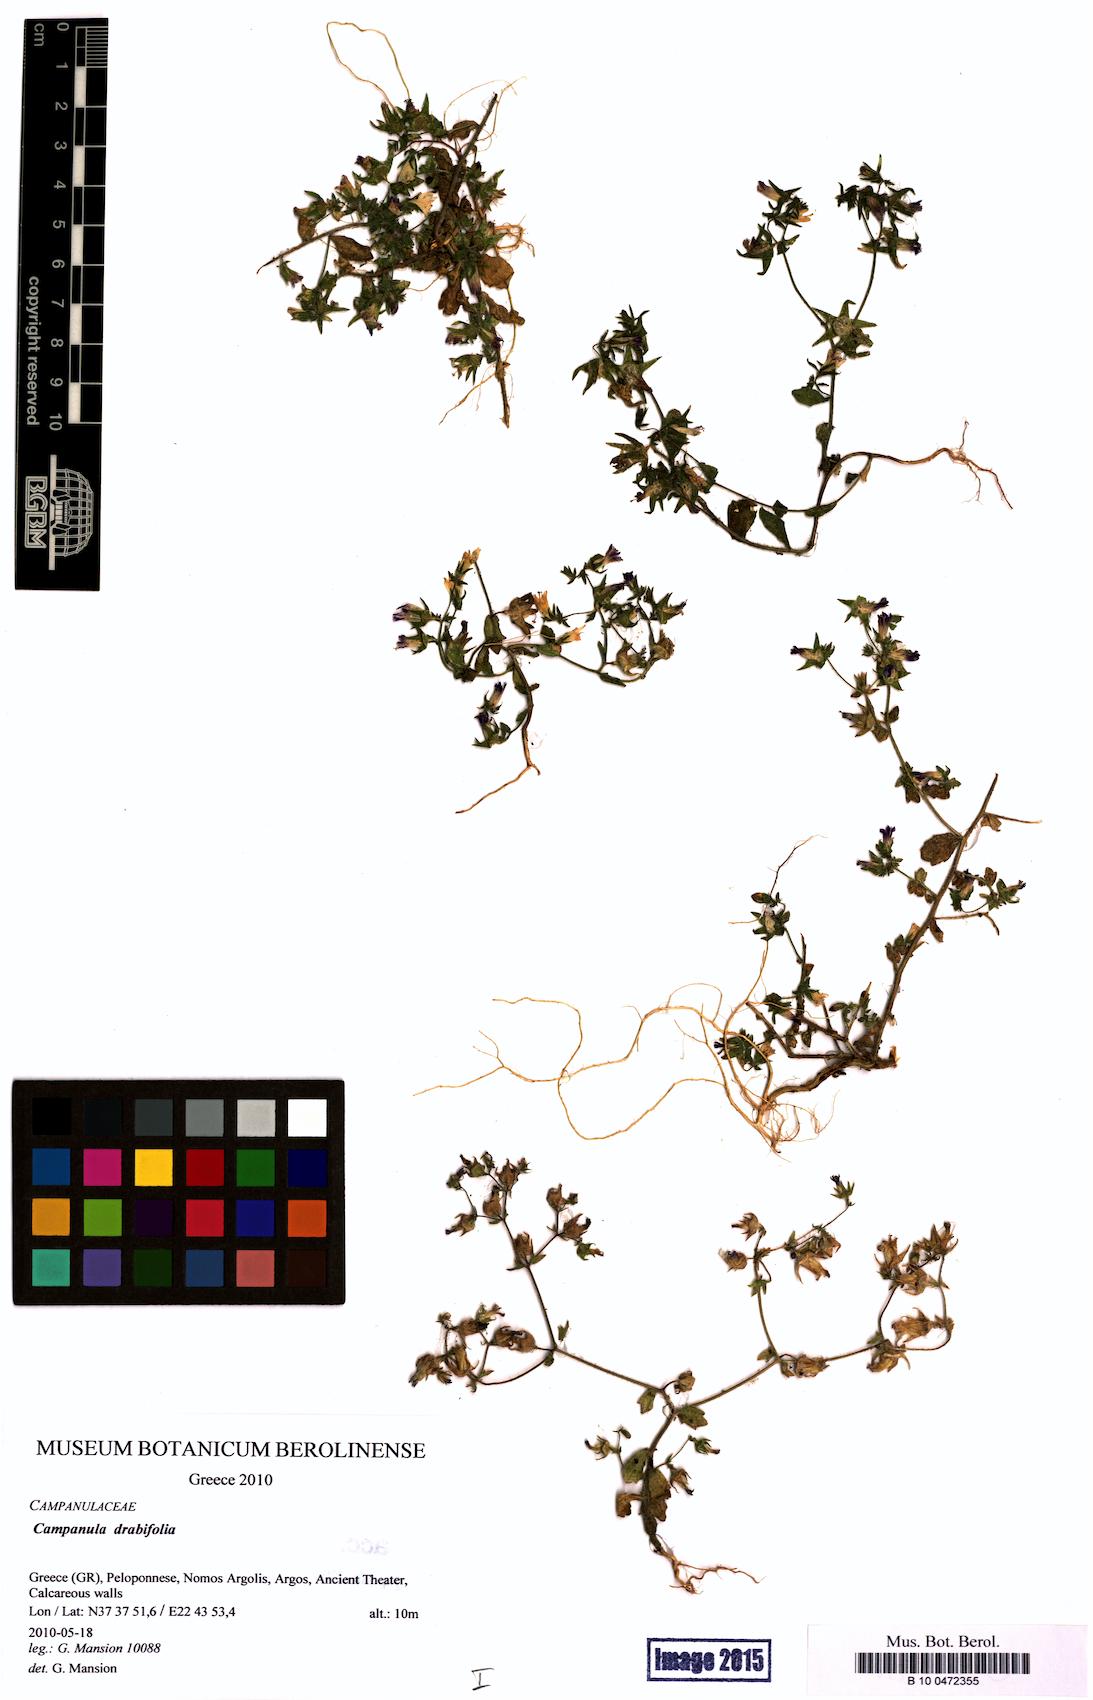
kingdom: Plantae
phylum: Tracheophyta
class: Magnoliopsida
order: Asterales
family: Campanulaceae
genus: Campanula
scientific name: Campanula drabifolia
